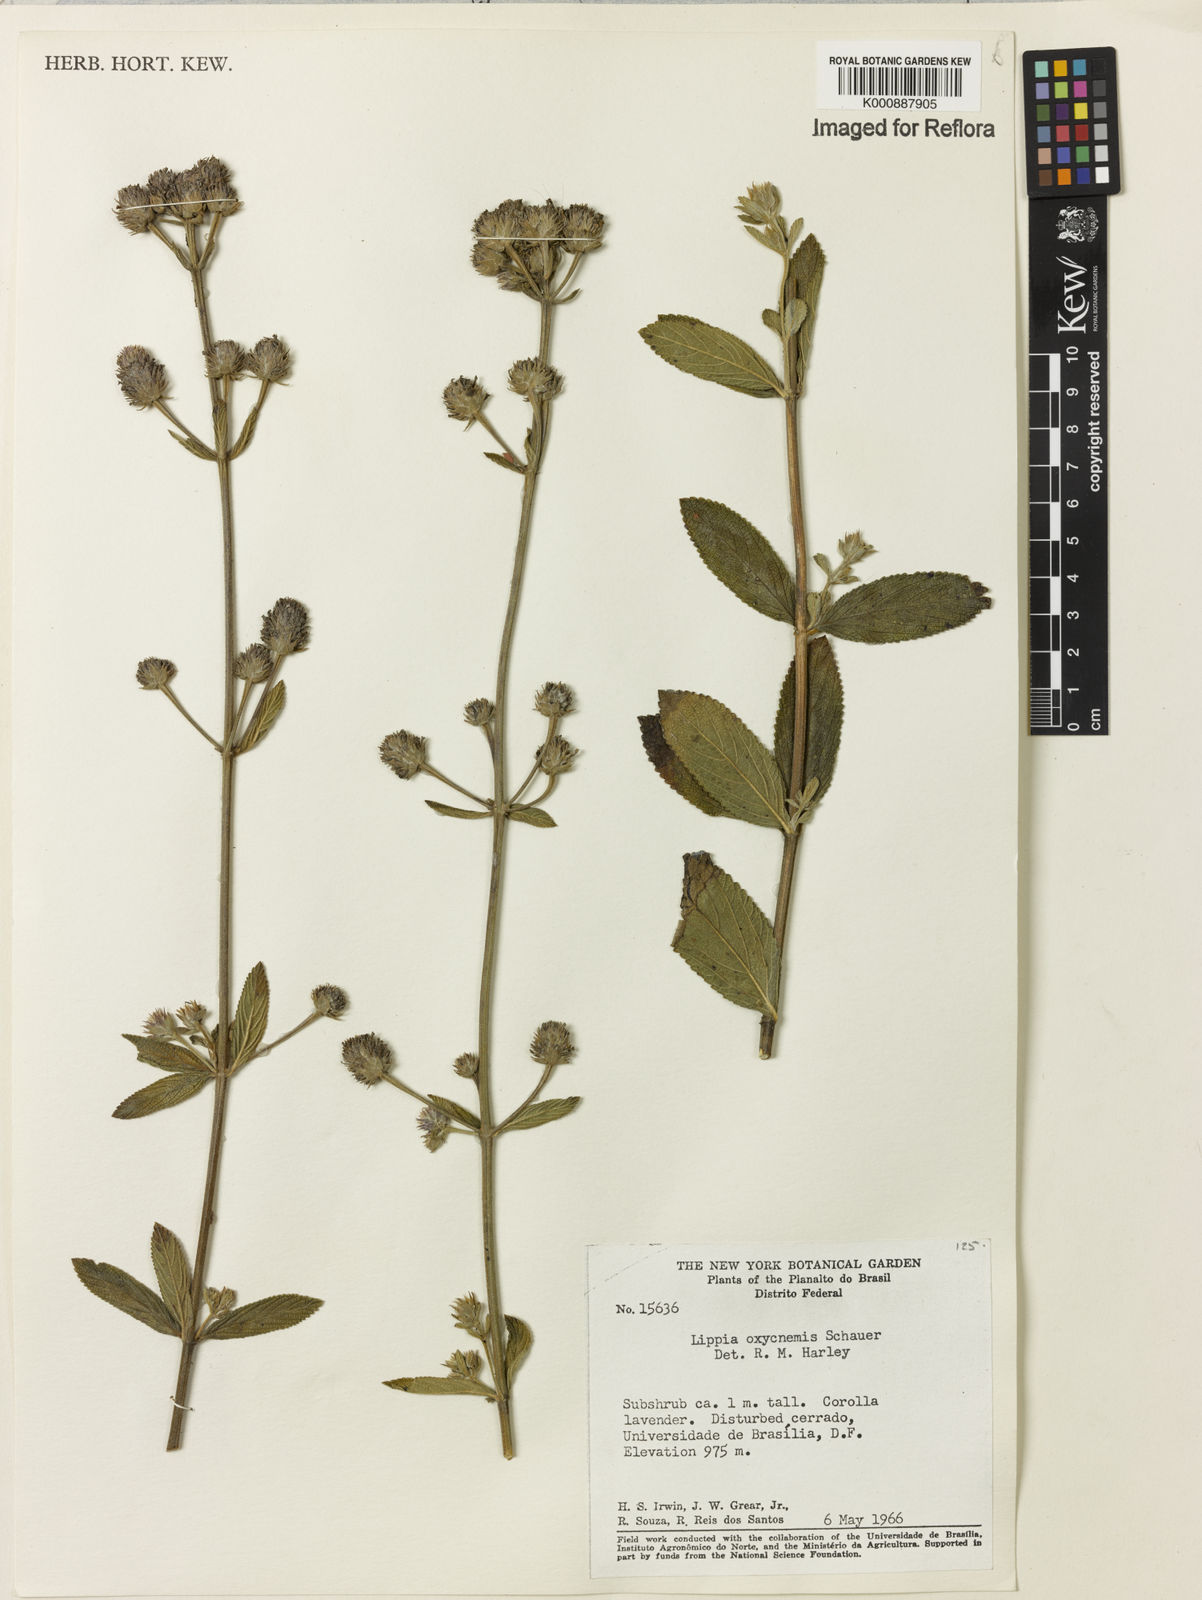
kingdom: Plantae
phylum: Tracheophyta
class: Magnoliopsida
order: Lamiales
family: Verbenaceae
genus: Lippia
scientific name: Lippia oxycnemis
